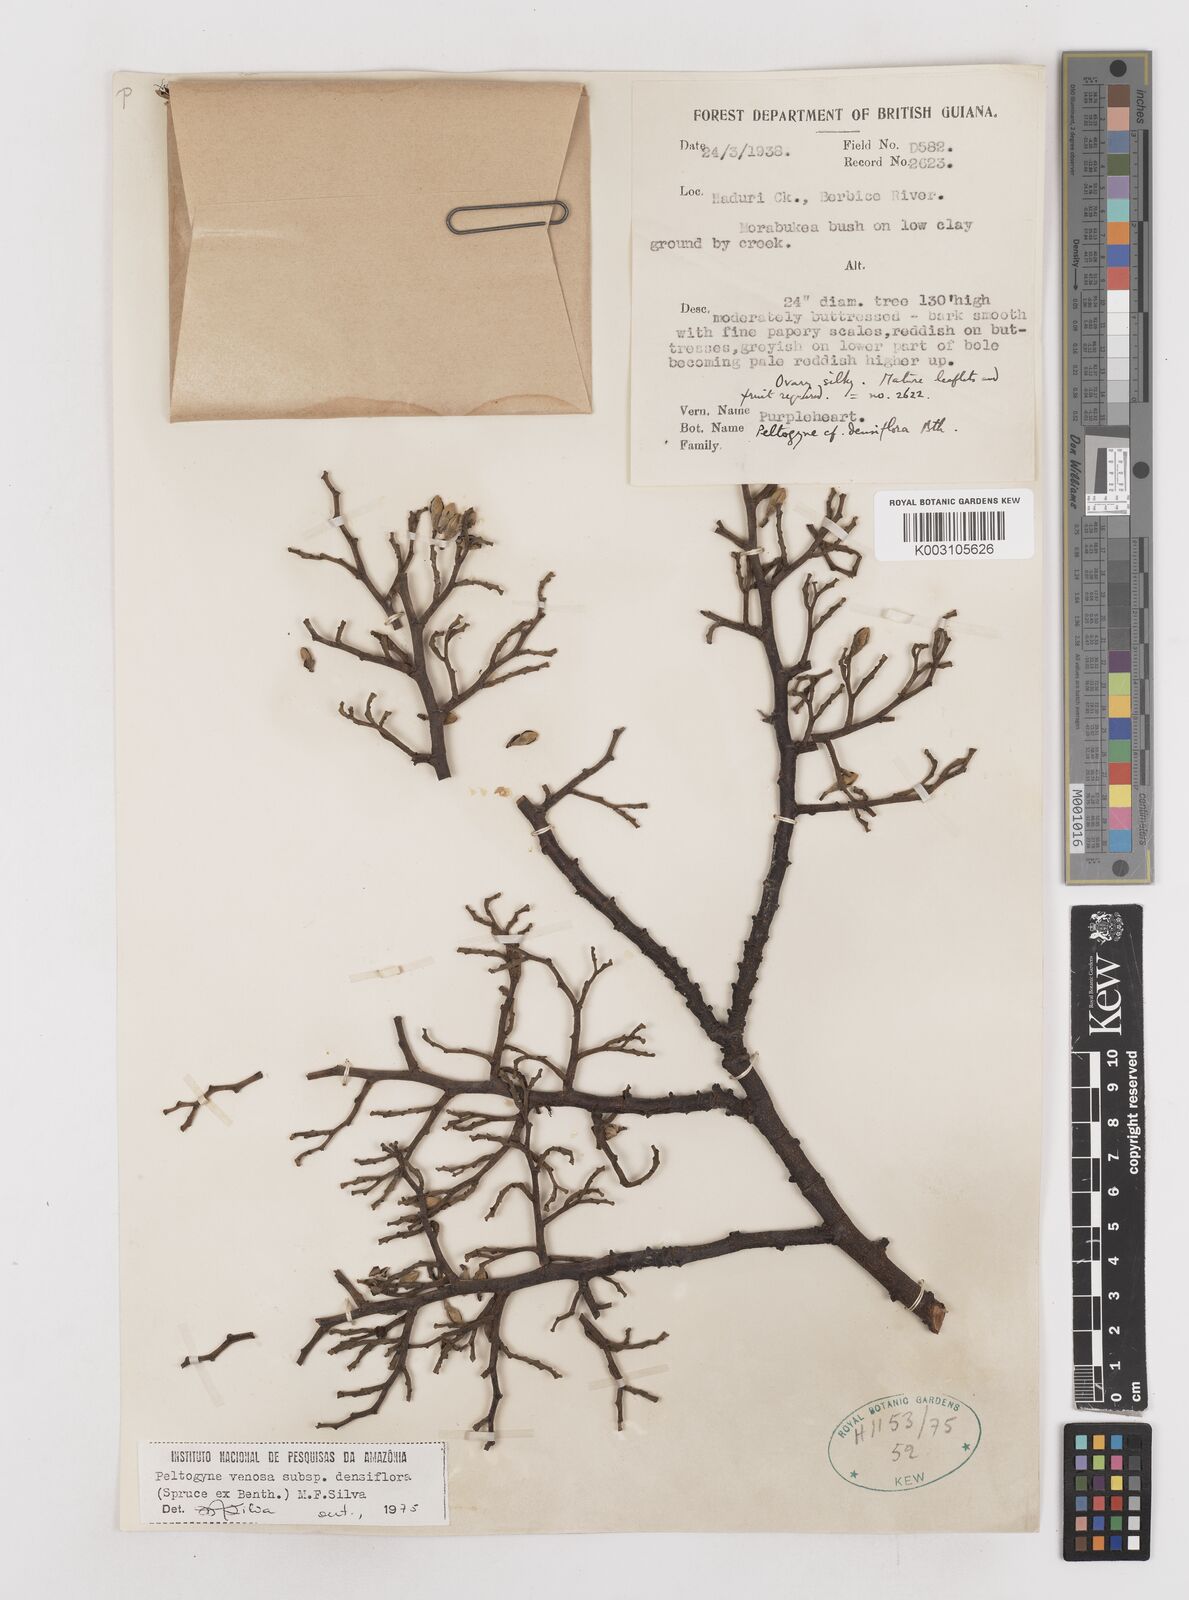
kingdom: Plantae
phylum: Tracheophyta
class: Magnoliopsida
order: Fabales
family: Fabaceae
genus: Peltogyne
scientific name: Peltogyne venosa
